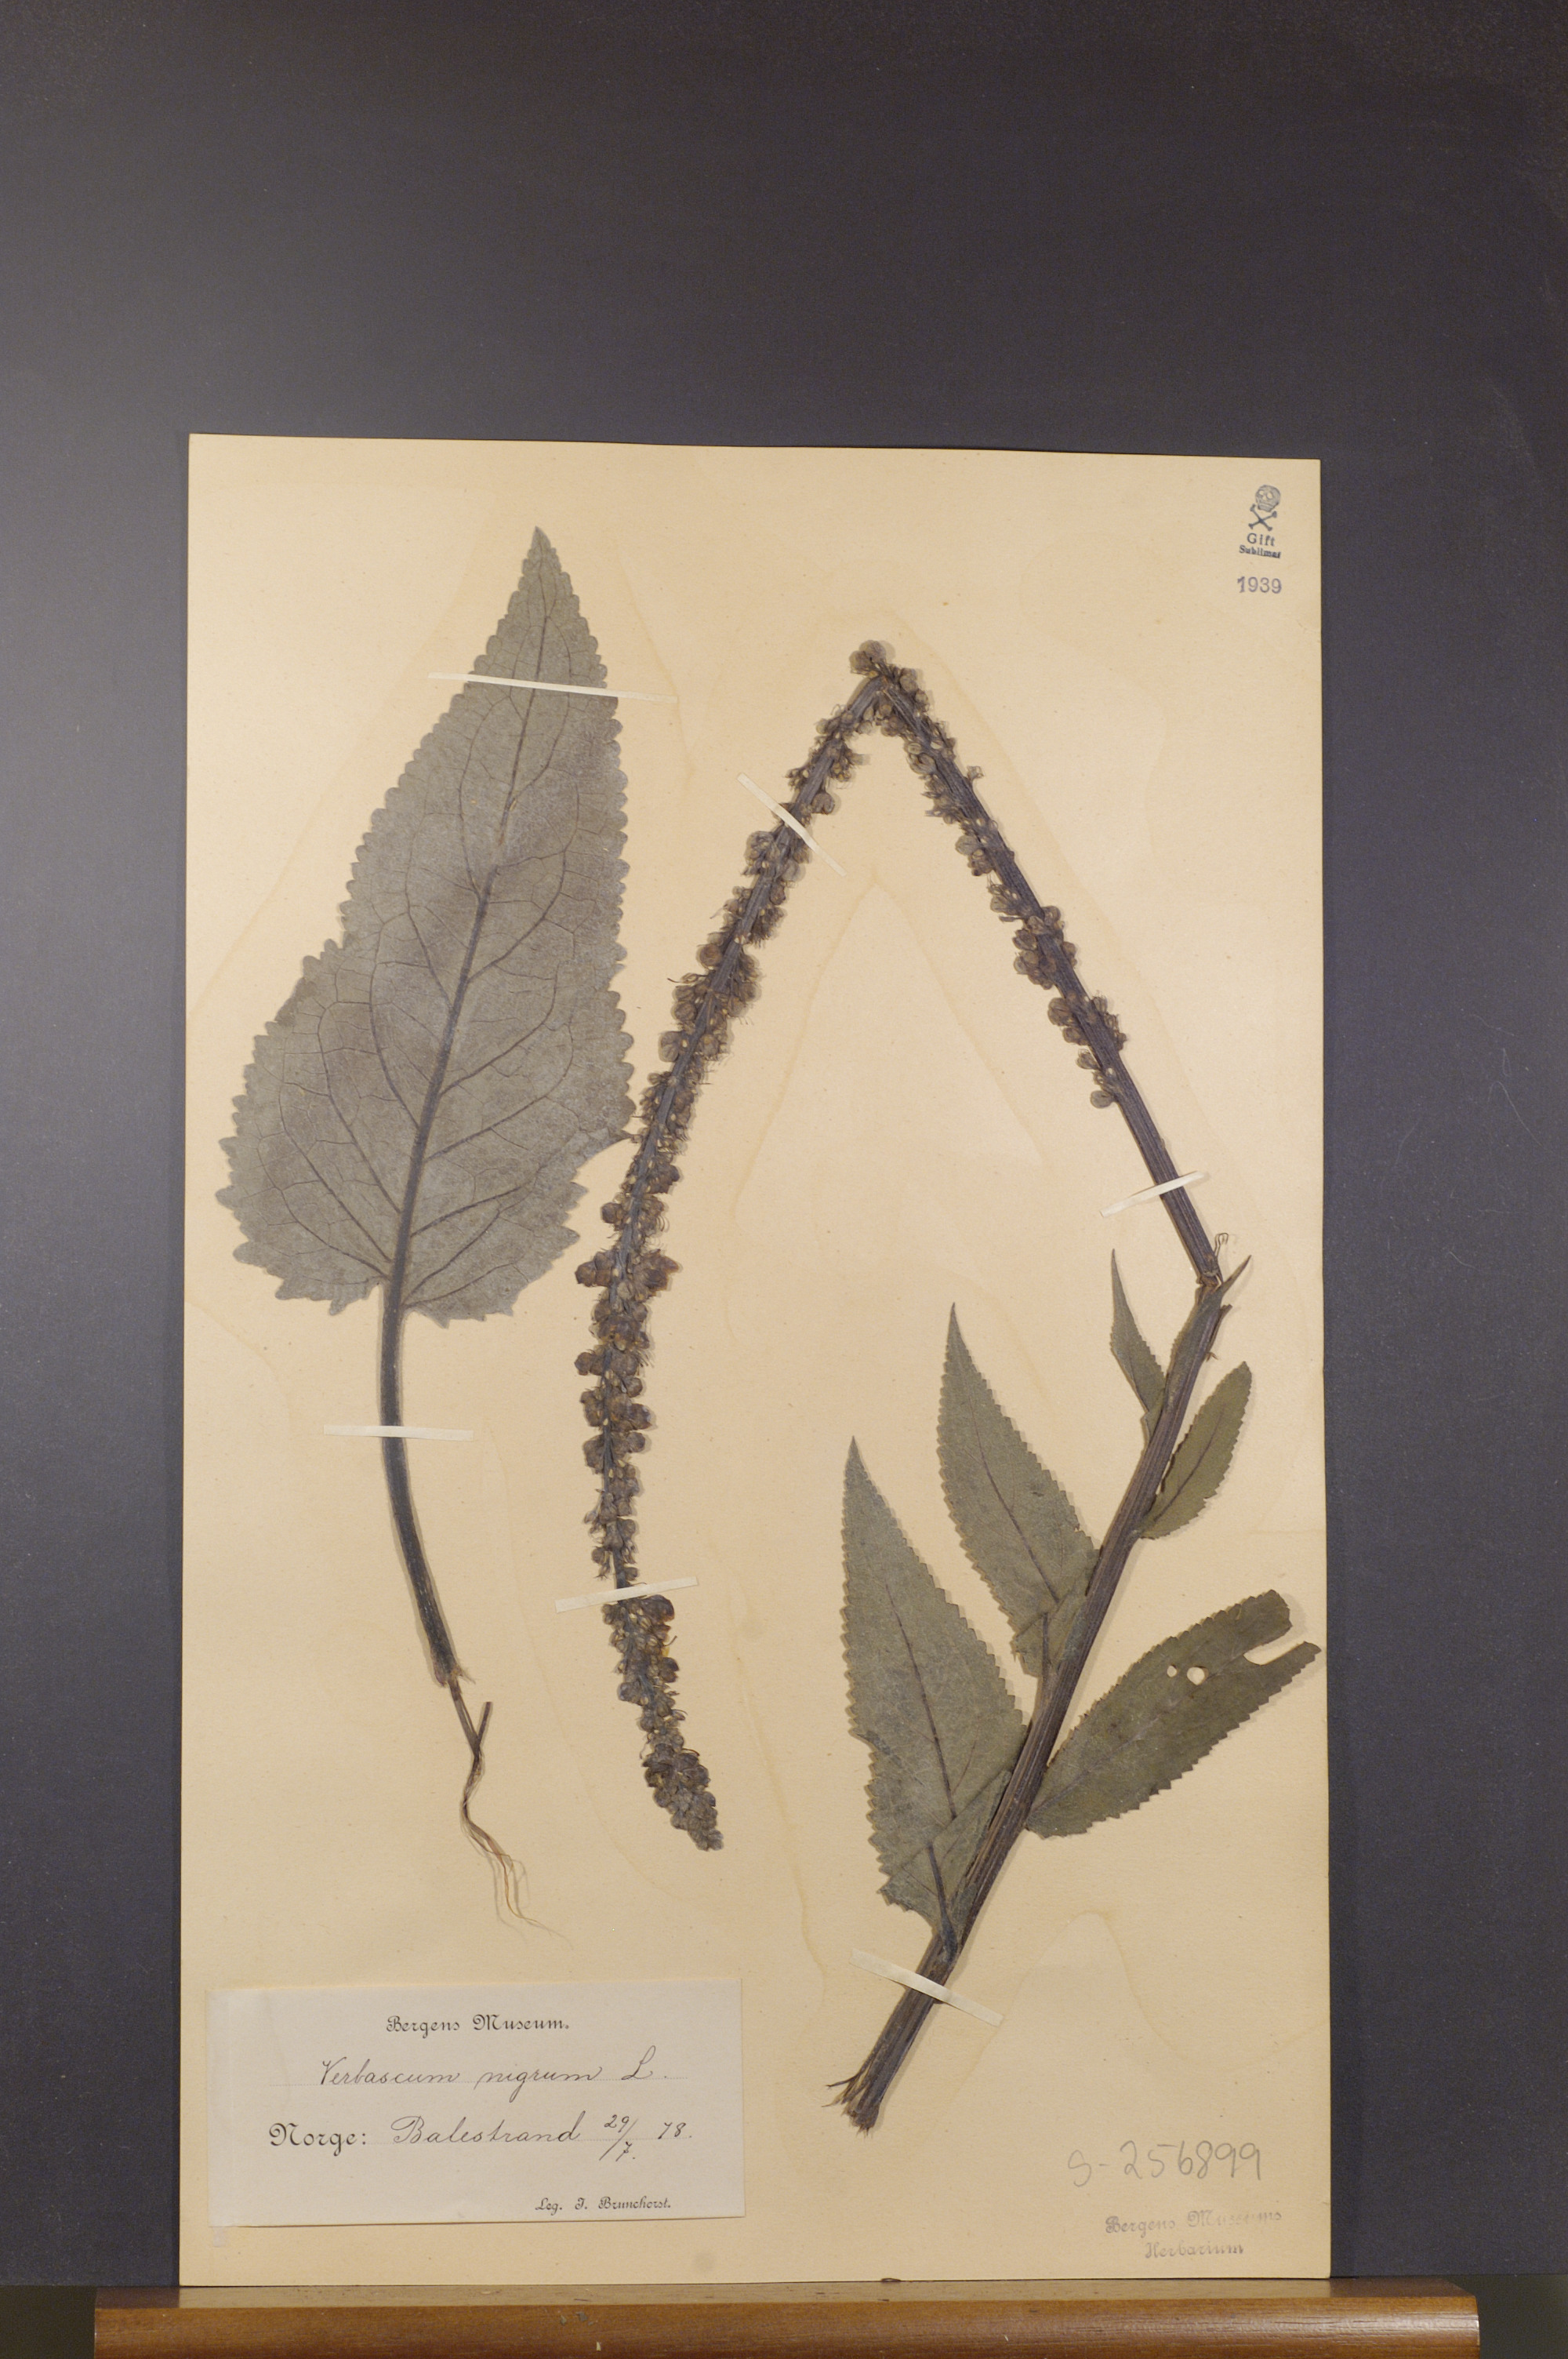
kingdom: Plantae
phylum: Tracheophyta
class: Magnoliopsida
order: Lamiales
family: Scrophulariaceae
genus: Verbascum
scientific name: Verbascum nigrum
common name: Dark mullein
